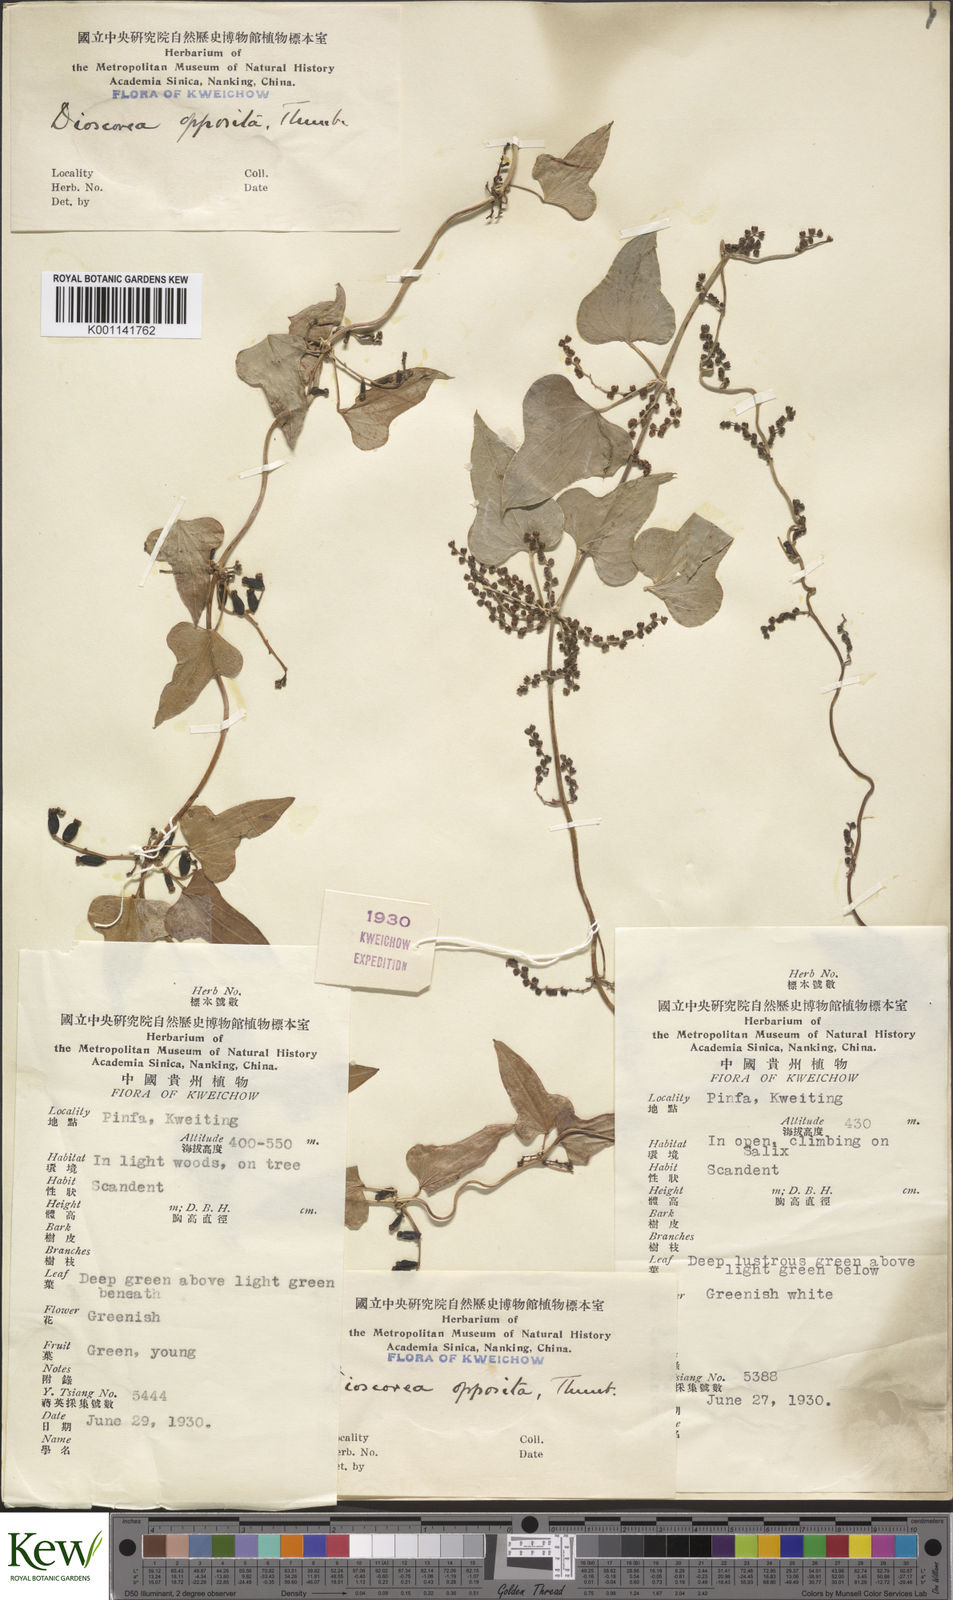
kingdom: Plantae
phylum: Tracheophyta
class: Liliopsida
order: Dioscoreales
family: Dioscoreaceae
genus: Dioscorea
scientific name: Dioscorea oppositifolia
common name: Chinese yam
